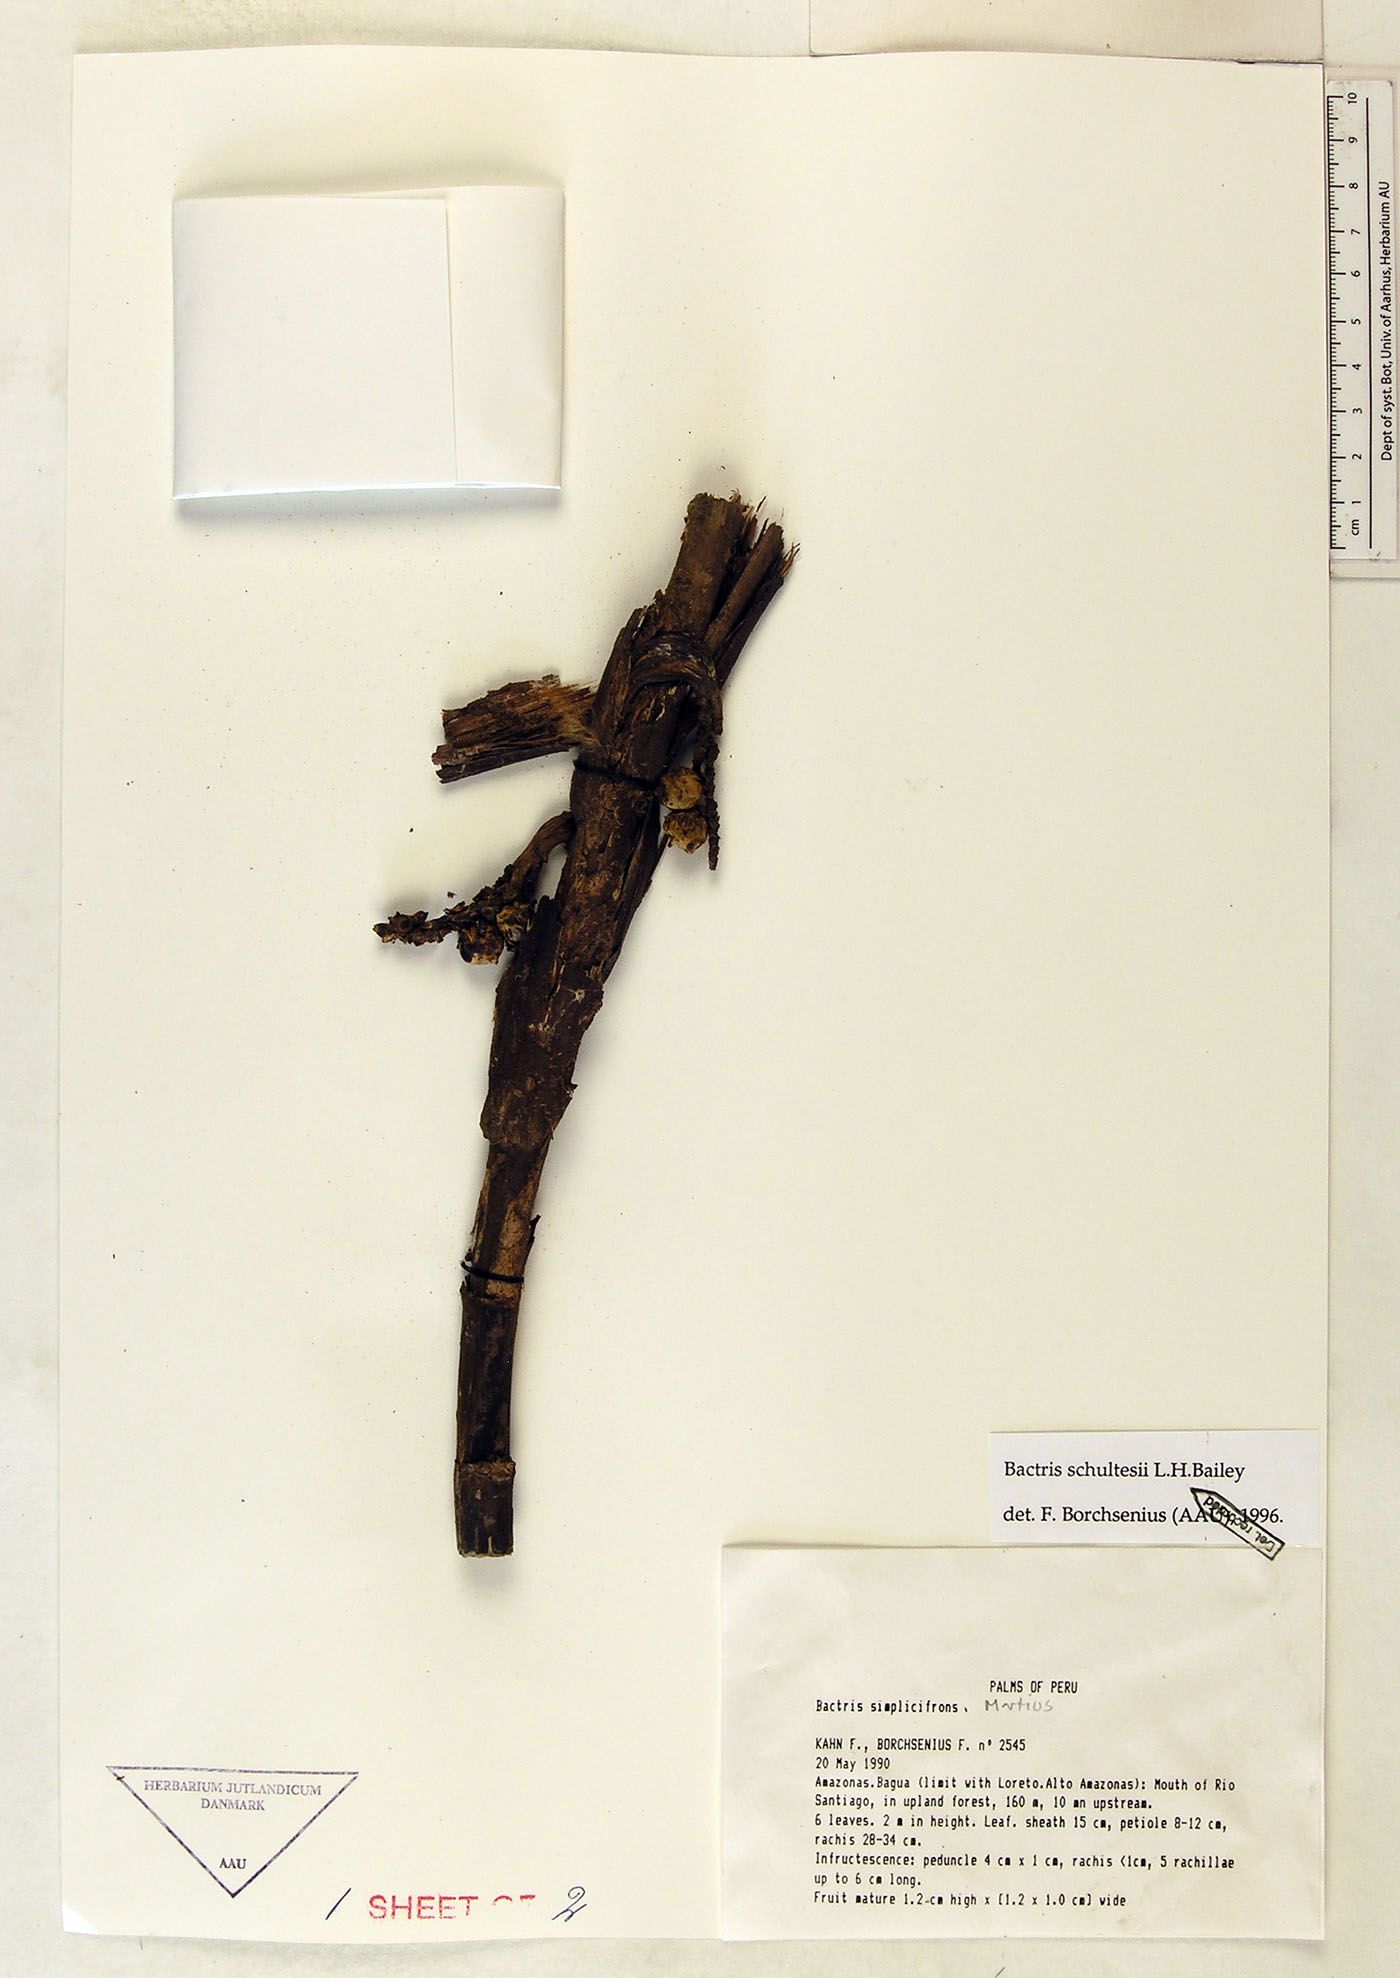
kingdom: Plantae
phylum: Tracheophyta
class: Liliopsida
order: Arecales
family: Arecaceae
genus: Bactris
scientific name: Bactris schultesii
